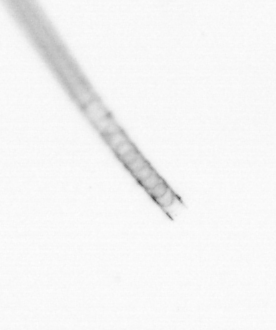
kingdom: Chromista
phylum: Ochrophyta
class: Bacillariophyceae
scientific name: Bacillariophyceae
